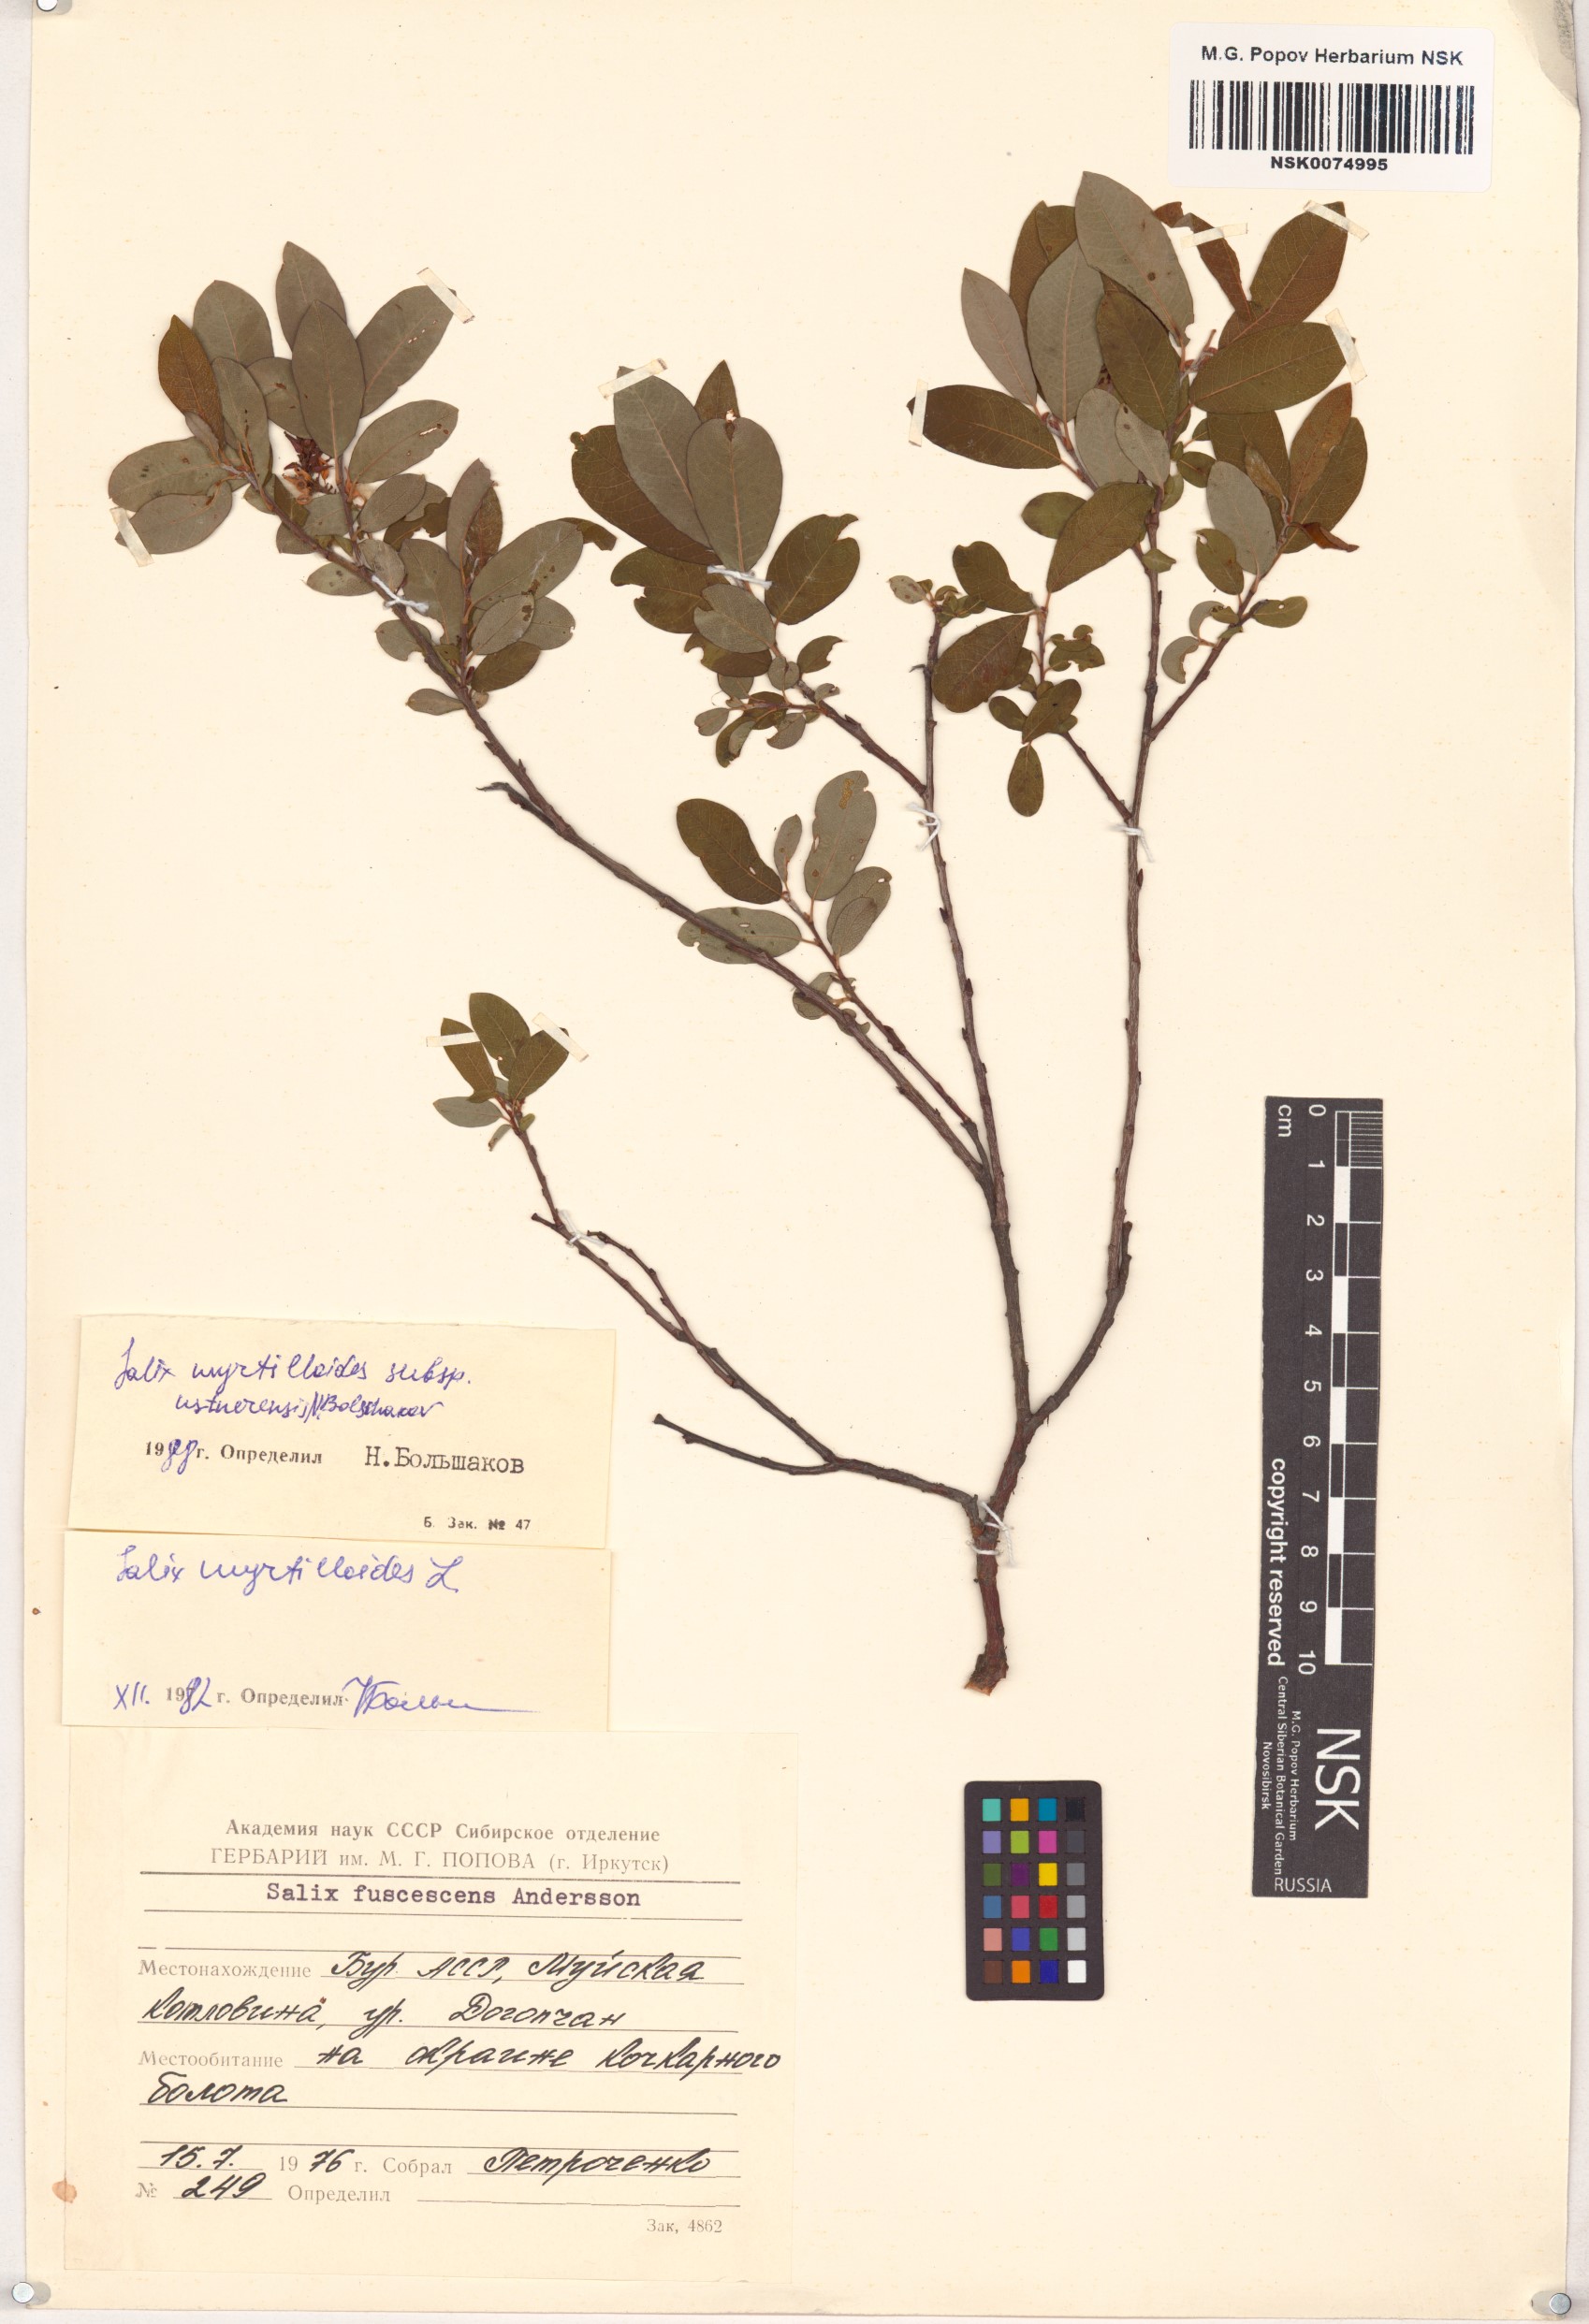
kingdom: Plantae
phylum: Tracheophyta
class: Magnoliopsida
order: Malpighiales
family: Salicaceae
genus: Salix
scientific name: Salix ustnerensis
